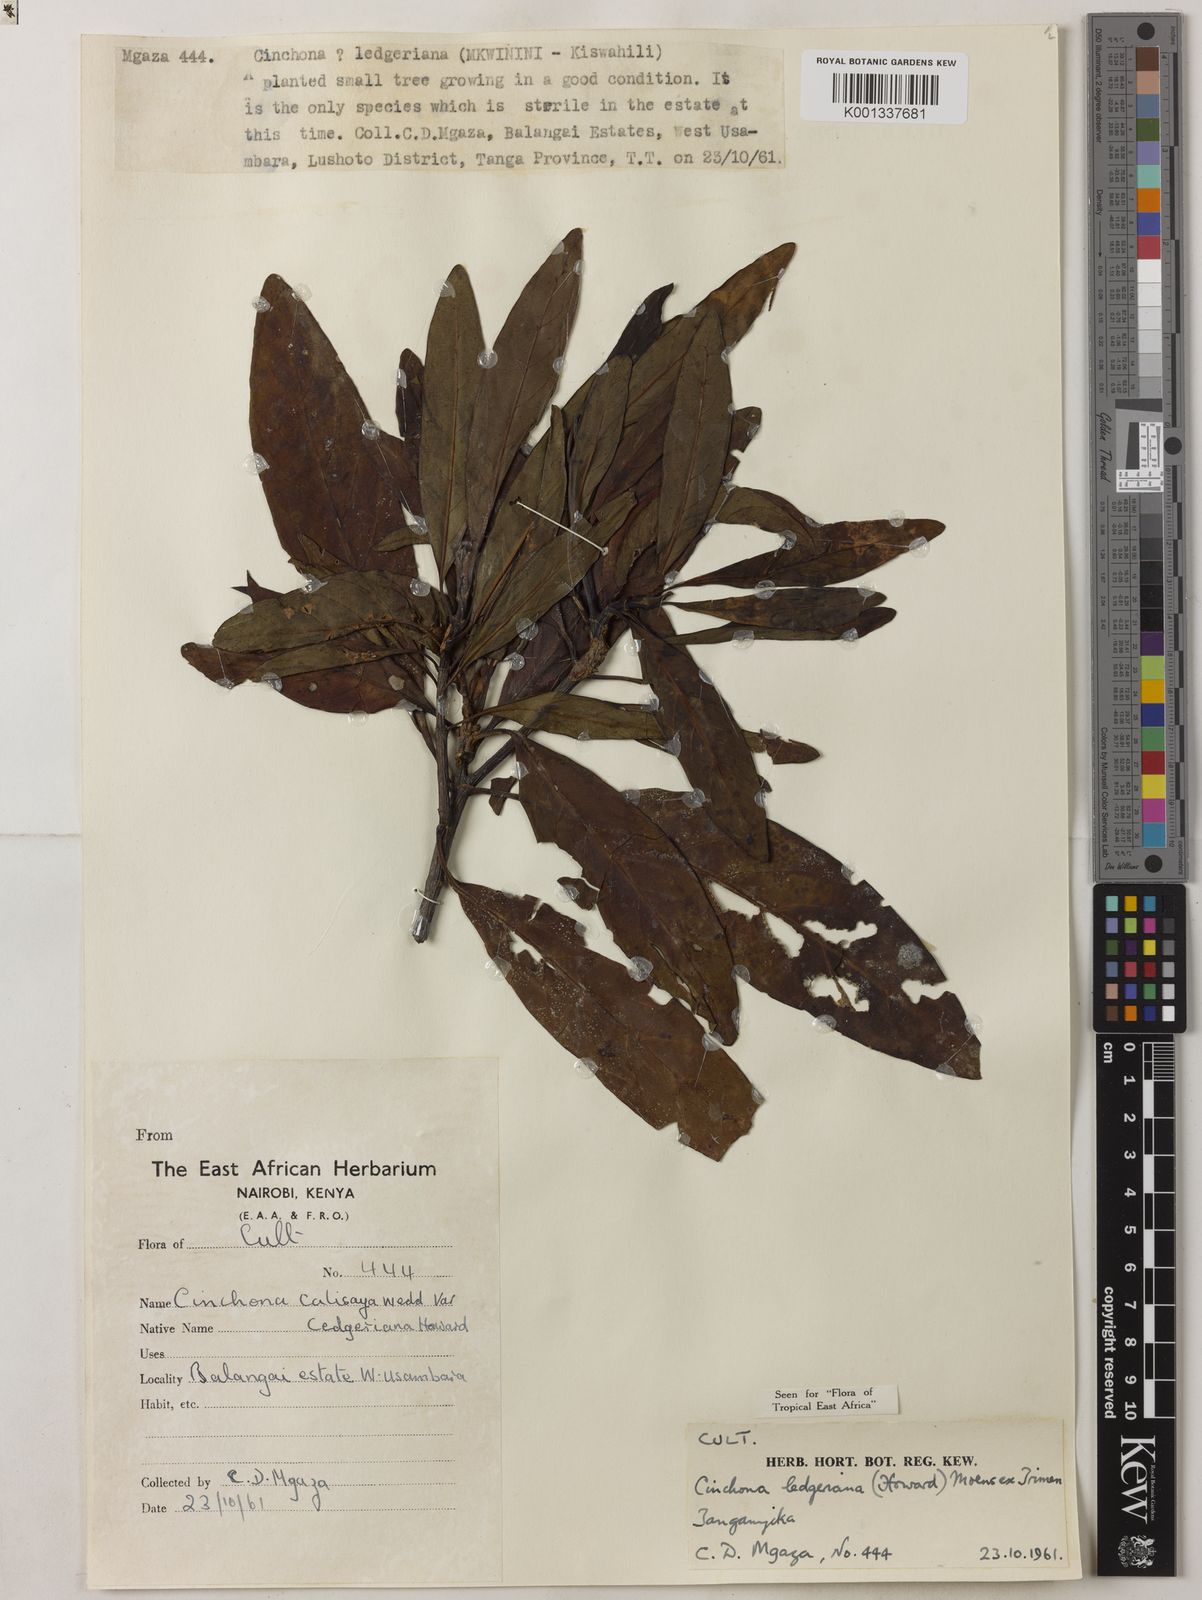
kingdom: Plantae
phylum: Tracheophyta
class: Magnoliopsida
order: Gentianales
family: Rubiaceae
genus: Cinchona
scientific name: Cinchona calisaya
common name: Ledgerbark
